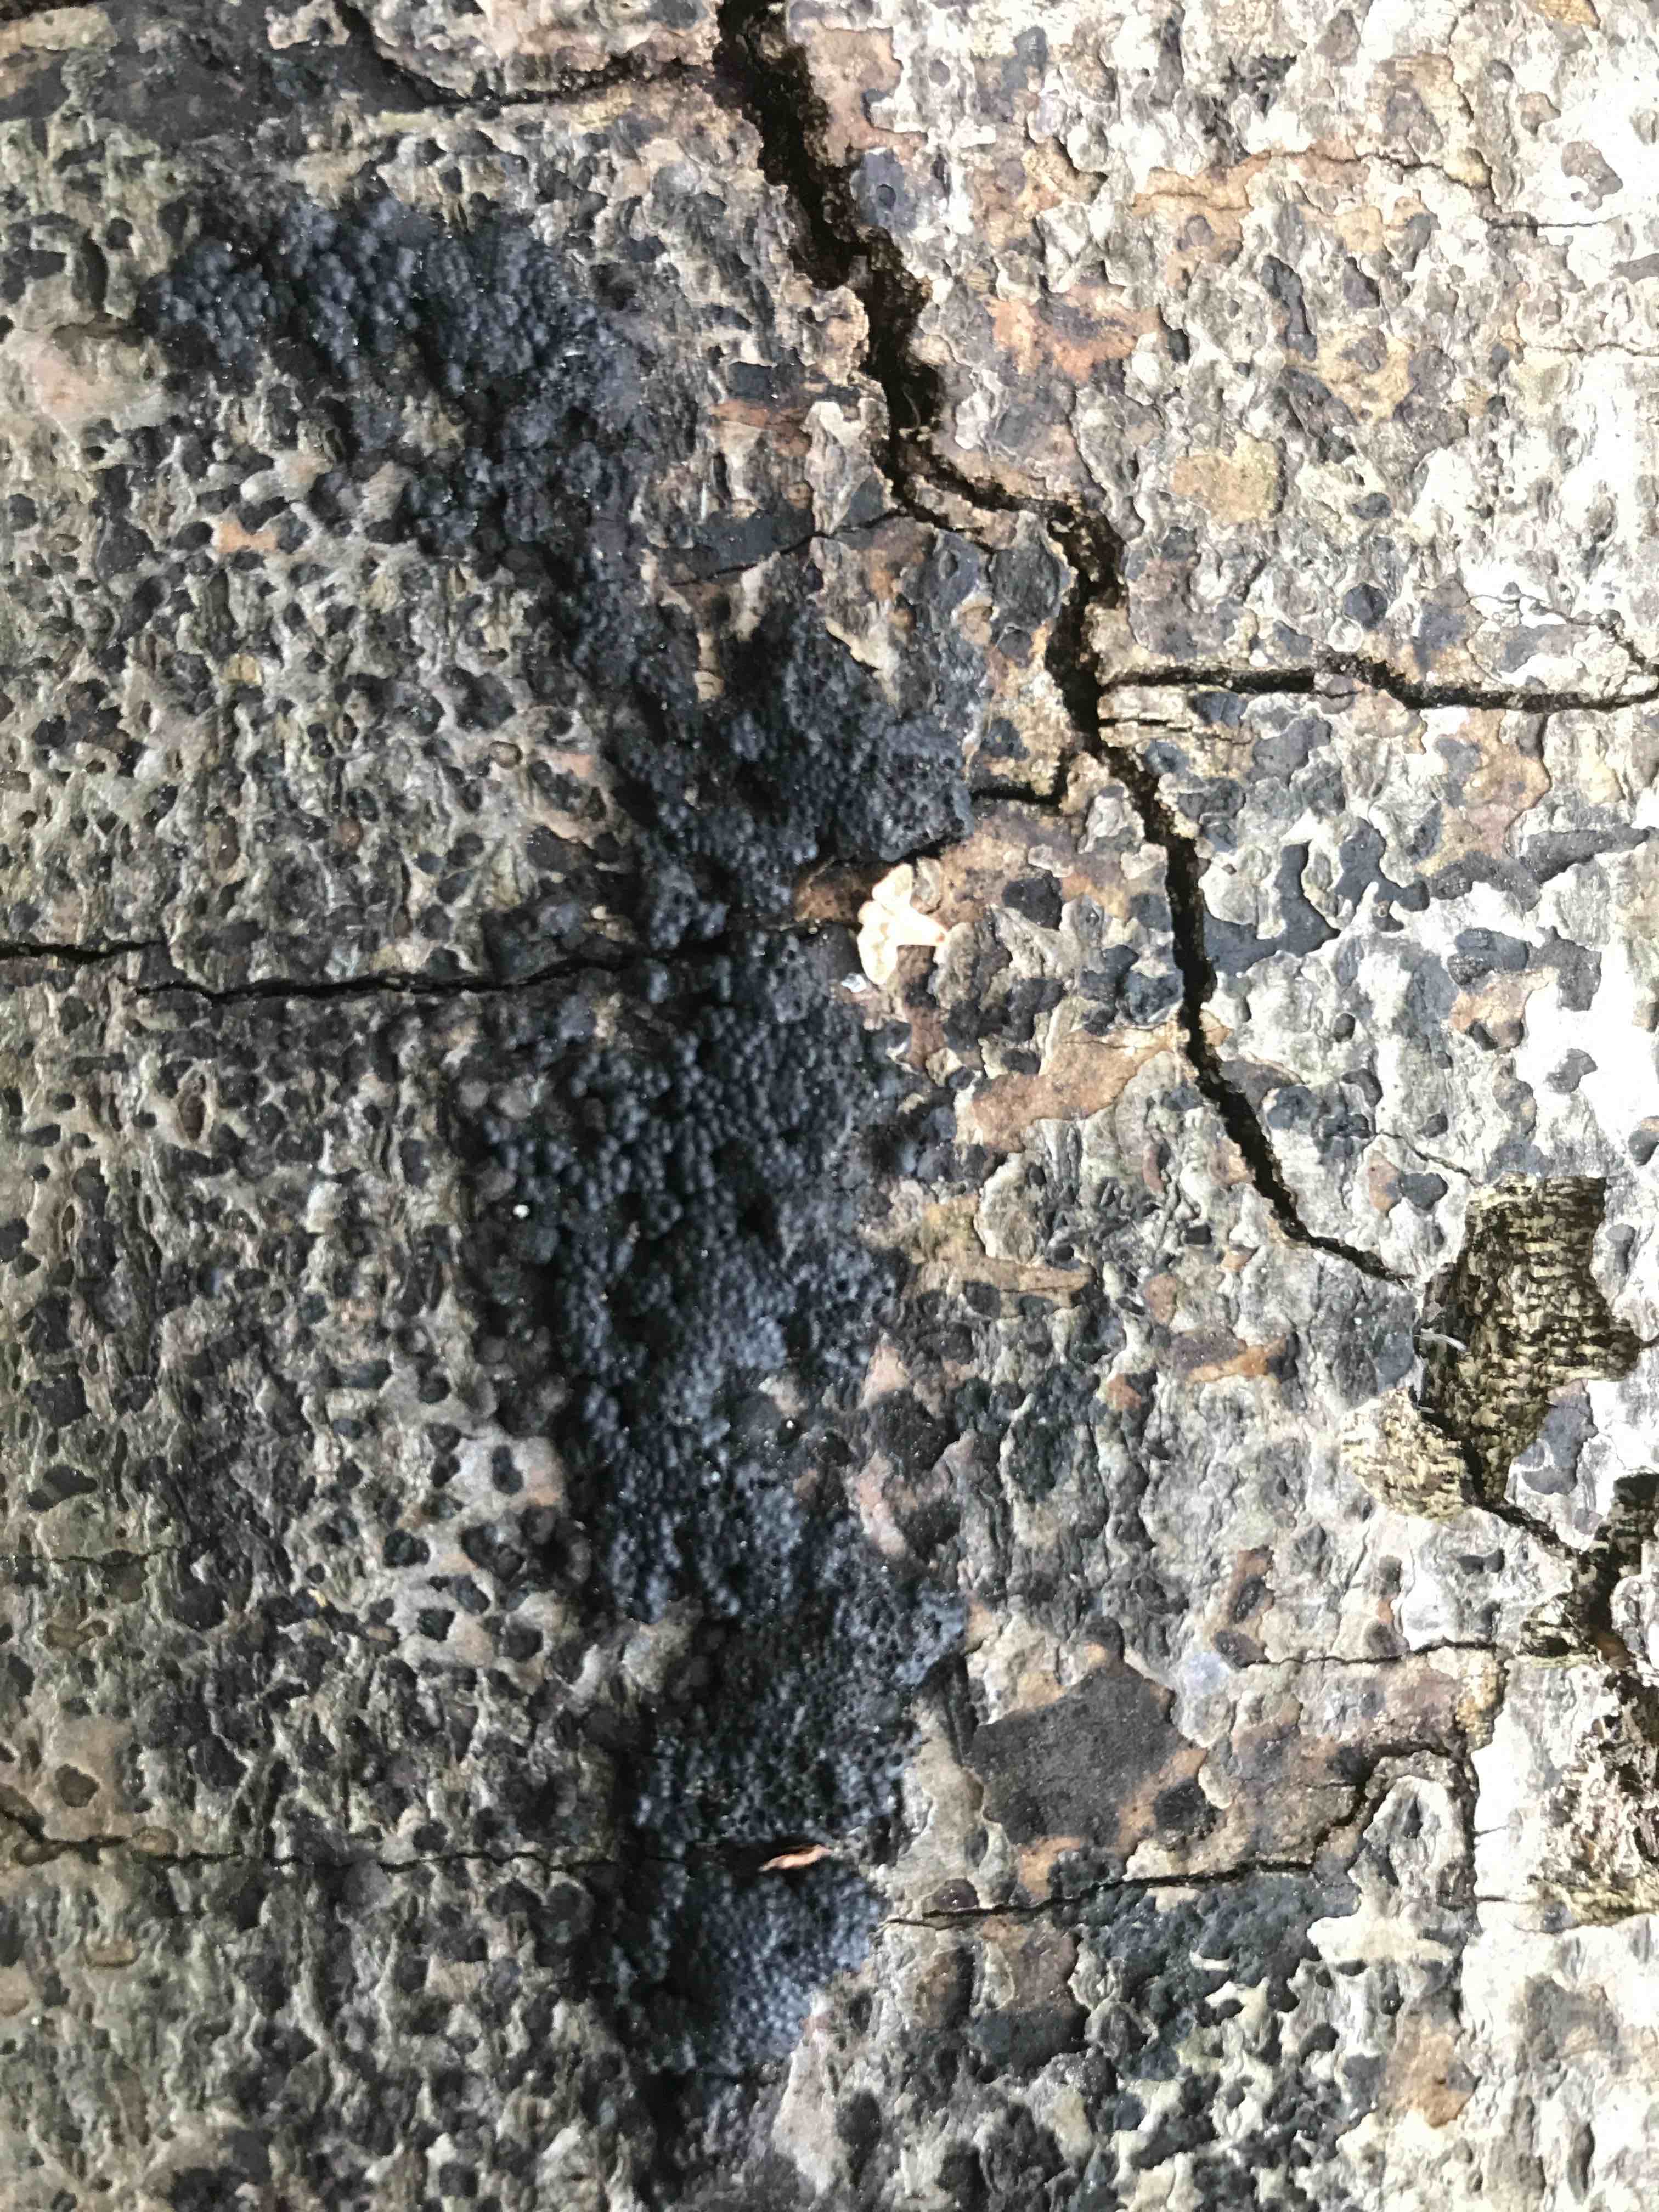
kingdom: Fungi
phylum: Ascomycota
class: Sordariomycetes
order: Xylariales
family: Hypoxylaceae
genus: Jackrogersella
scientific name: Jackrogersella cohaerens
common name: sammenflydende kulbær
